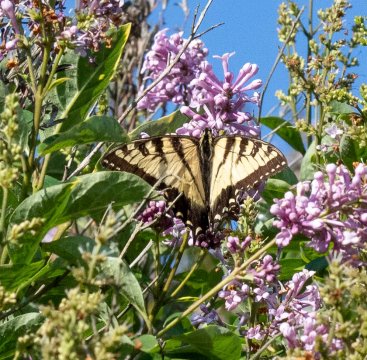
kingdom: Animalia
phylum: Arthropoda
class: Insecta
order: Lepidoptera
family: Papilionidae
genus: Pterourus
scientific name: Pterourus
